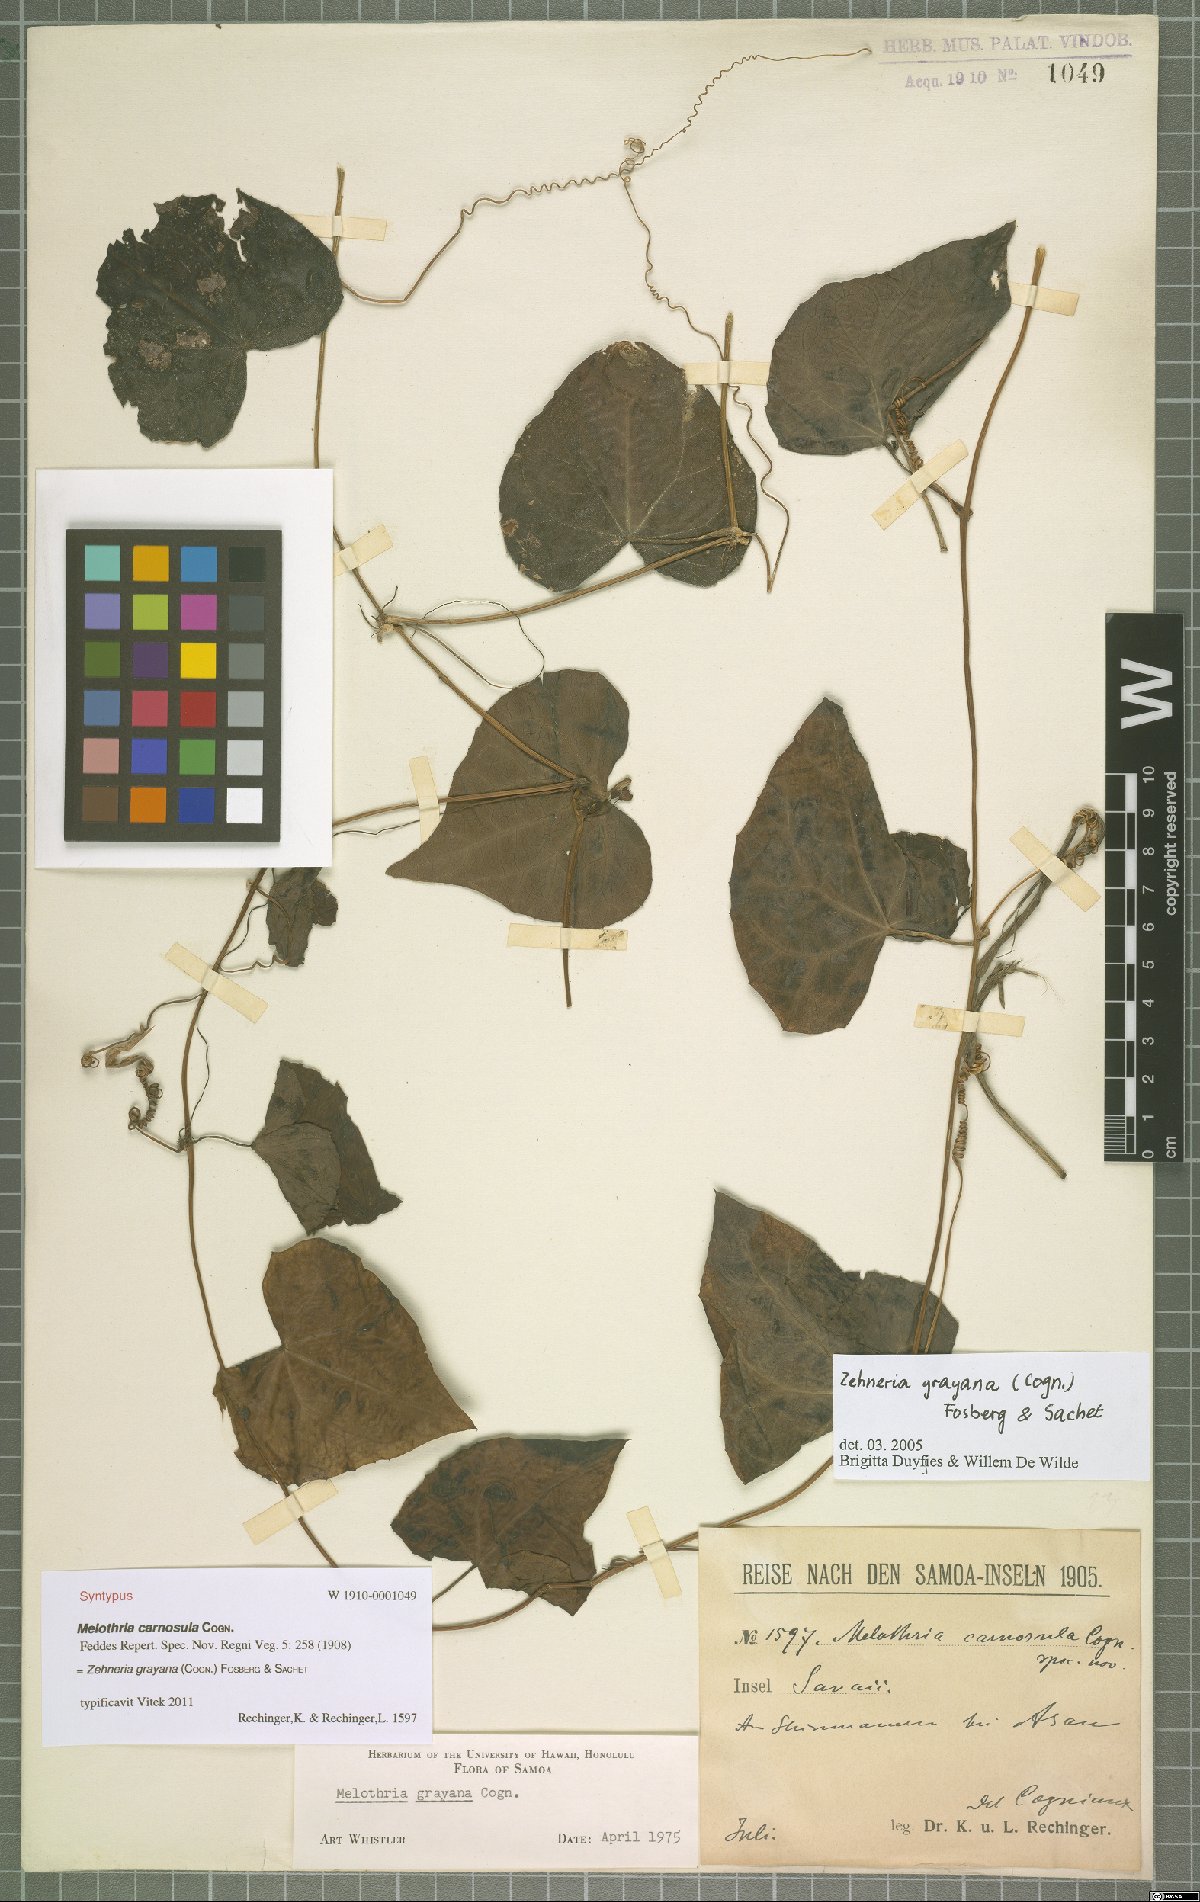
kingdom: Plantae
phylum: Tracheophyta
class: Magnoliopsida
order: Cucurbitales
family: Cucurbitaceae
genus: Zehneria
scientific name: Zehneria mucronata
